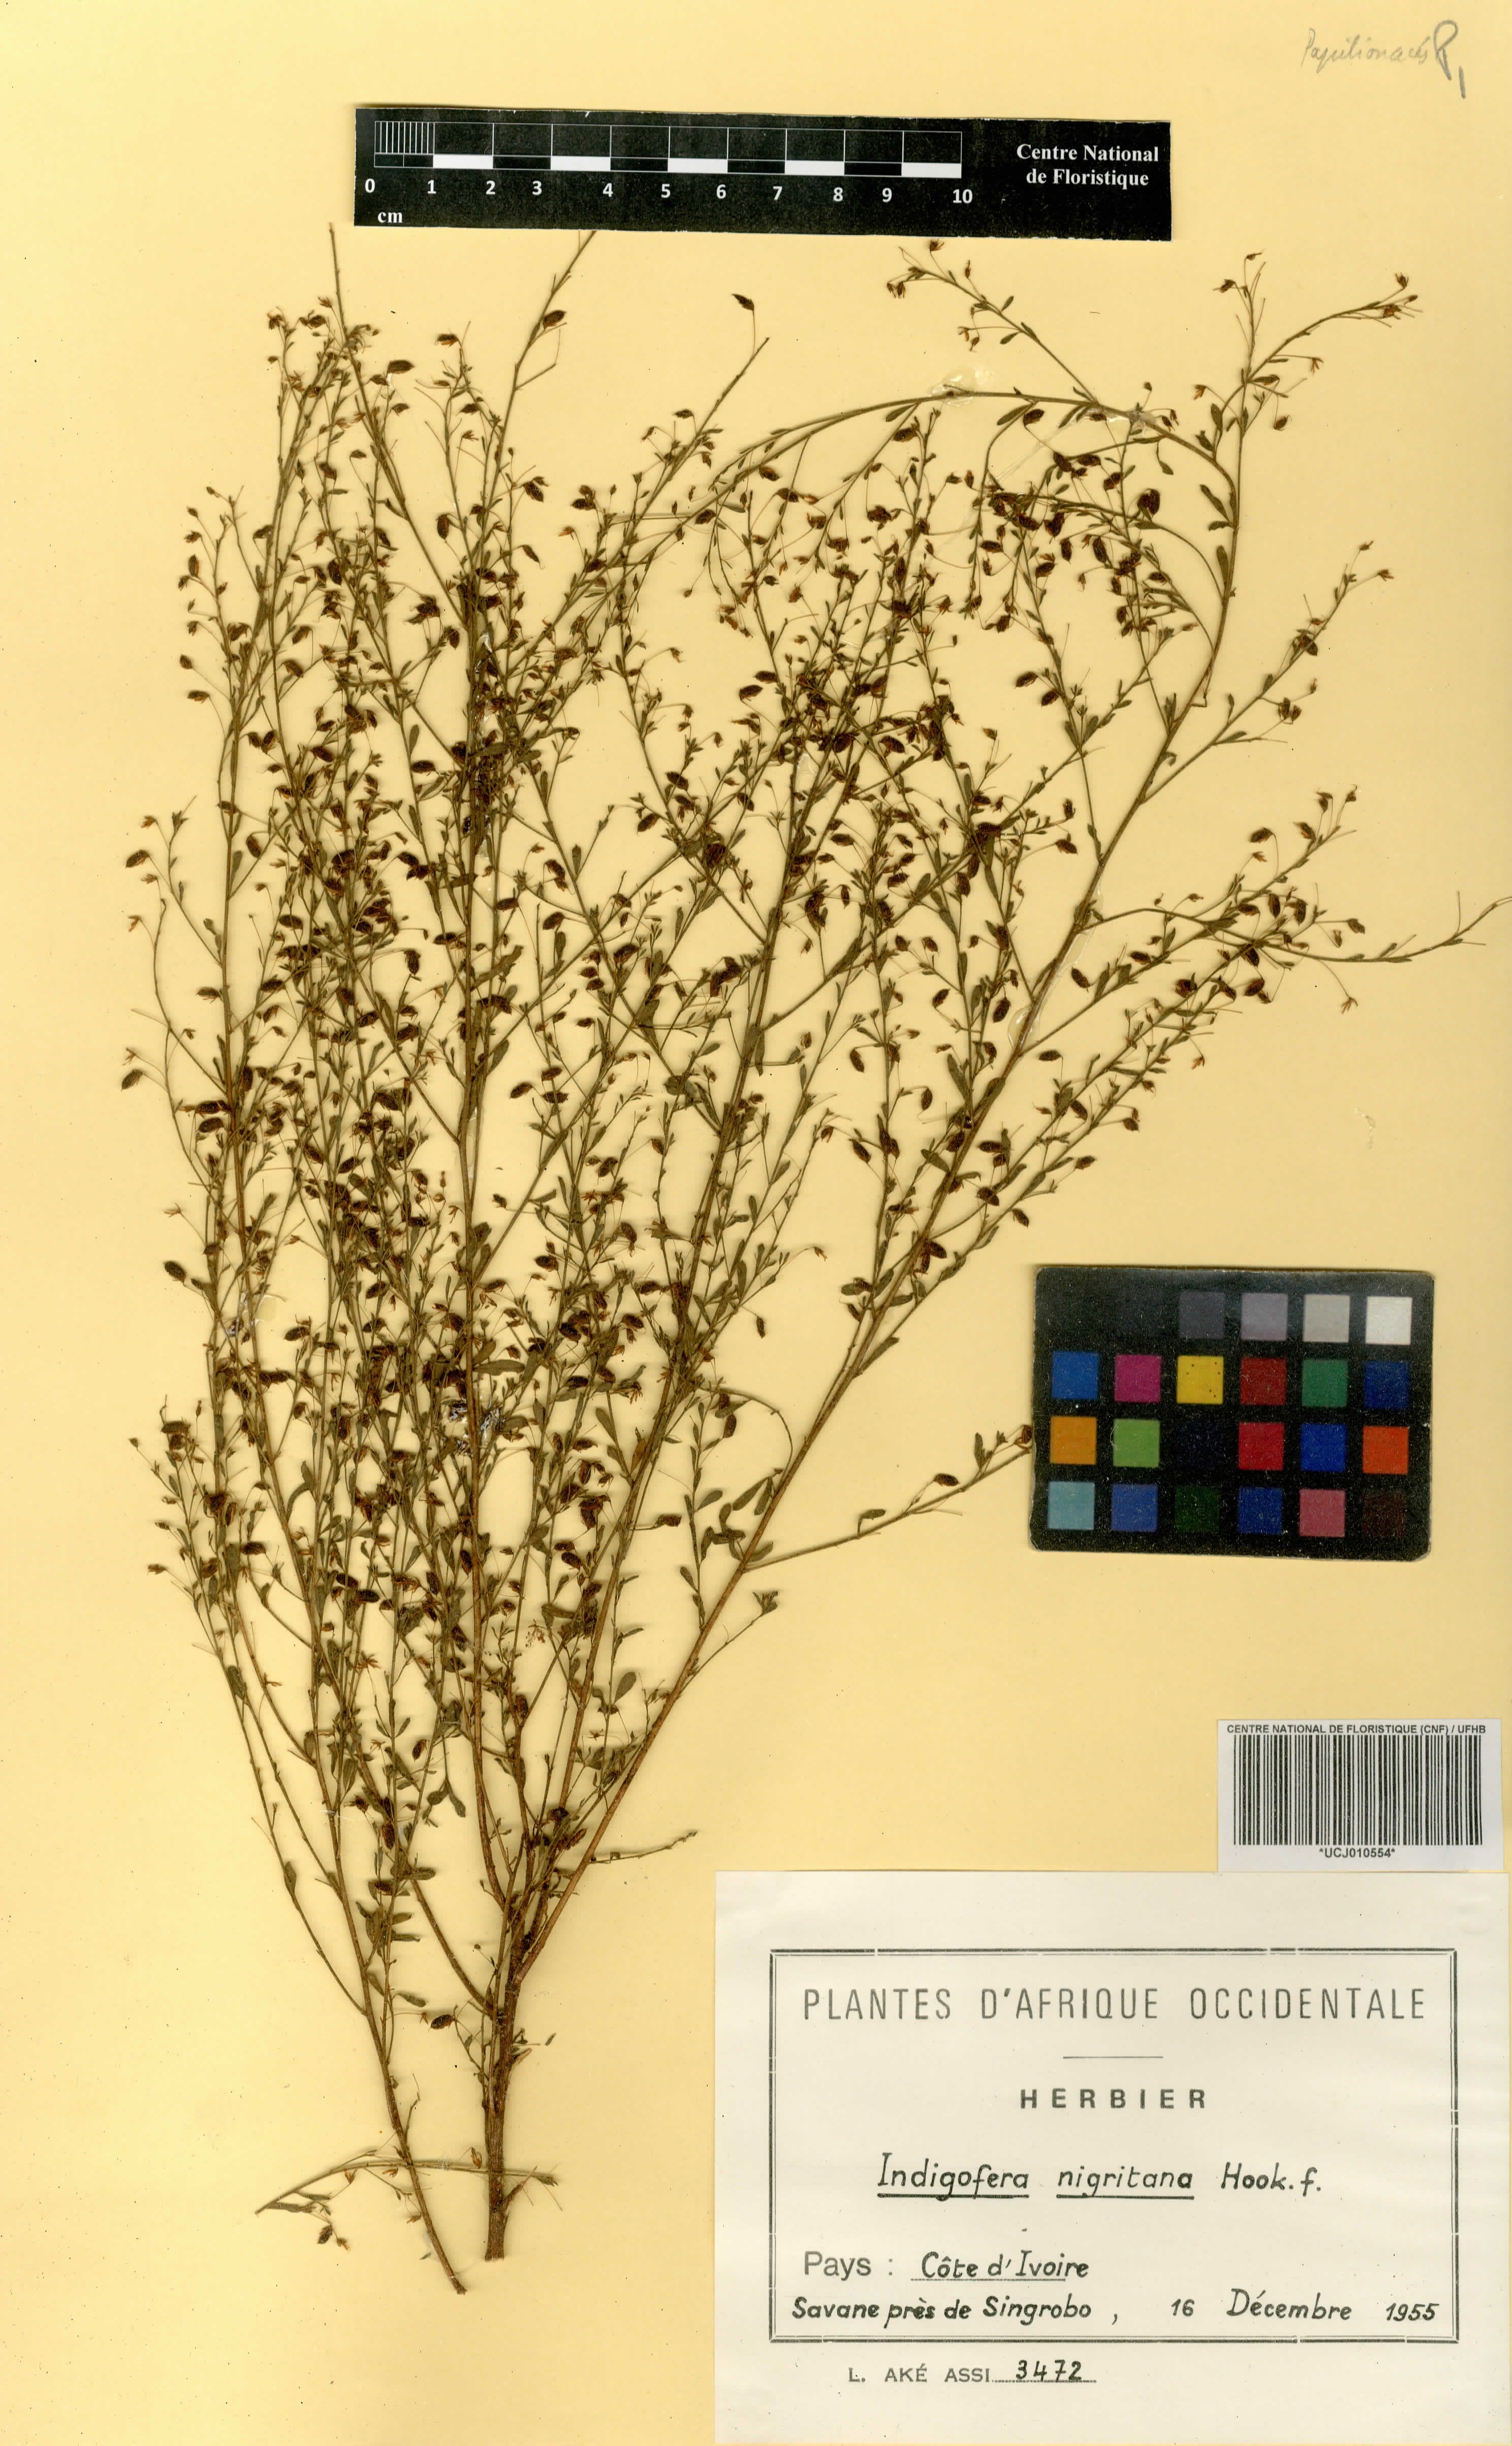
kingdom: Plantae
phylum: Tracheophyta
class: Magnoliopsida
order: Fabales
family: Fabaceae
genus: Indigofera
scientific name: Indigofera nigritana
